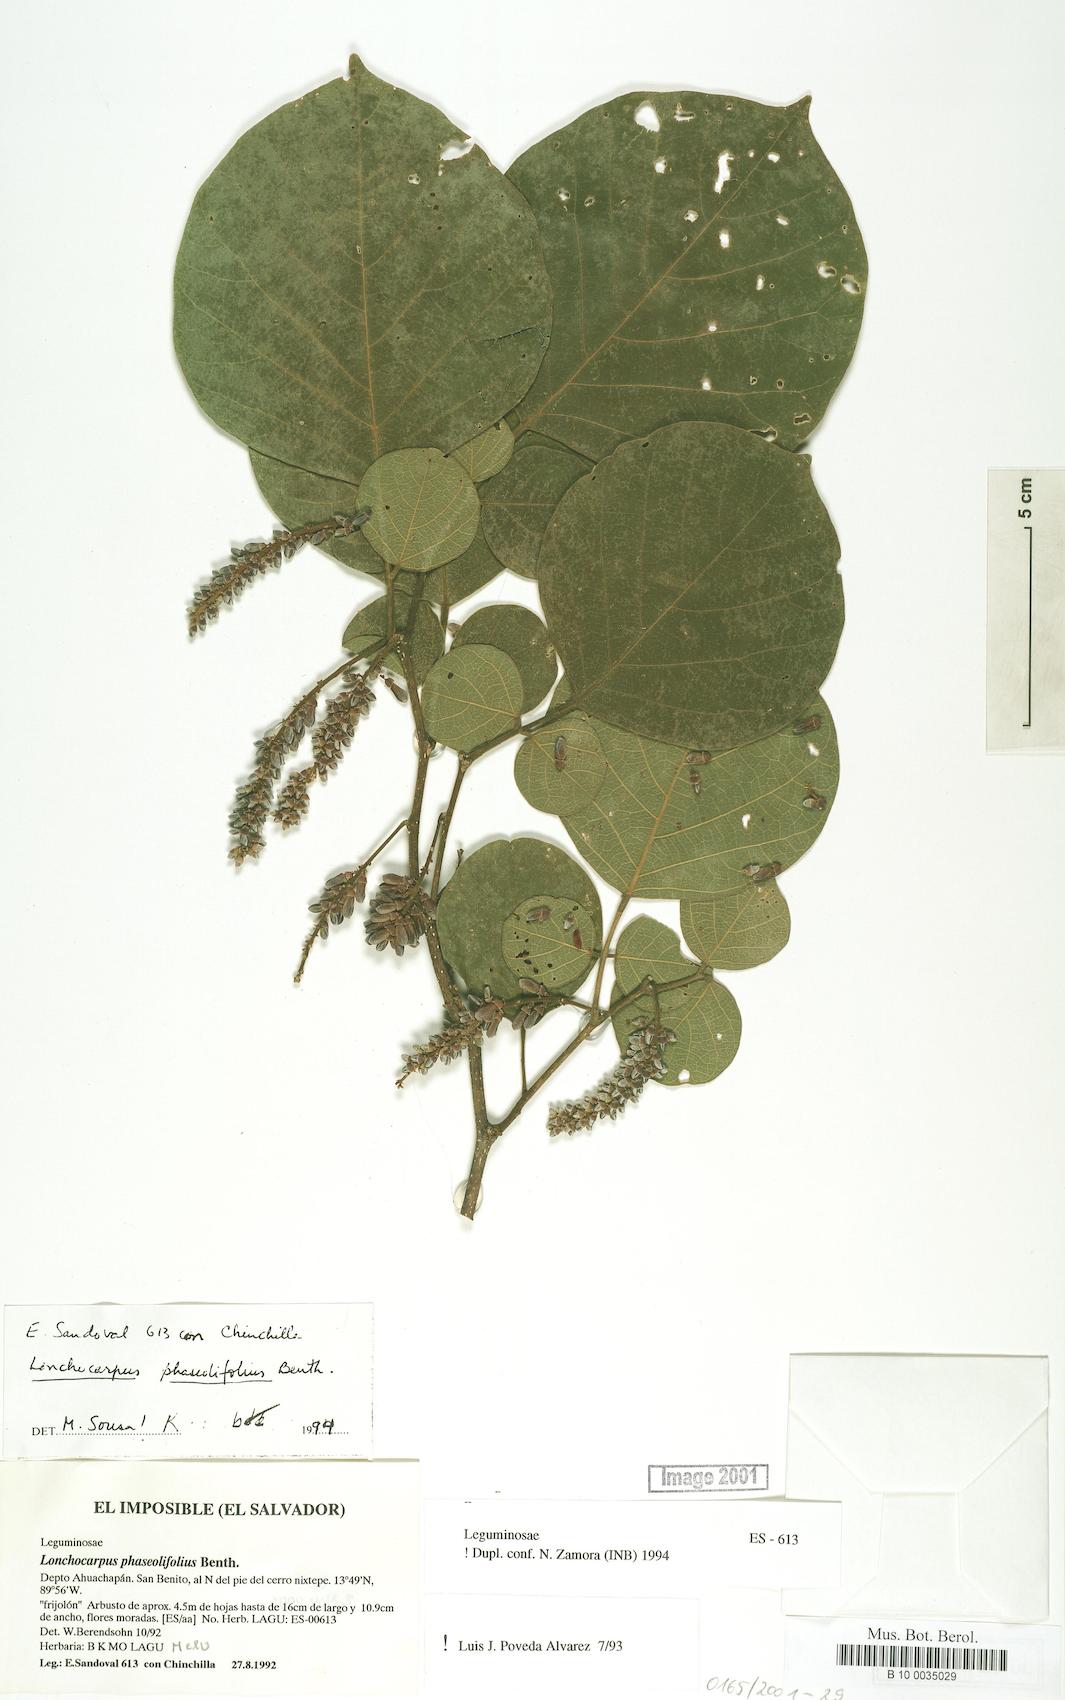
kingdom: Plantae
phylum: Tracheophyta
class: Magnoliopsida
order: Fabales
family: Fabaceae
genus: Lonchocarpus
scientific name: Lonchocarpus phaseolifolius
